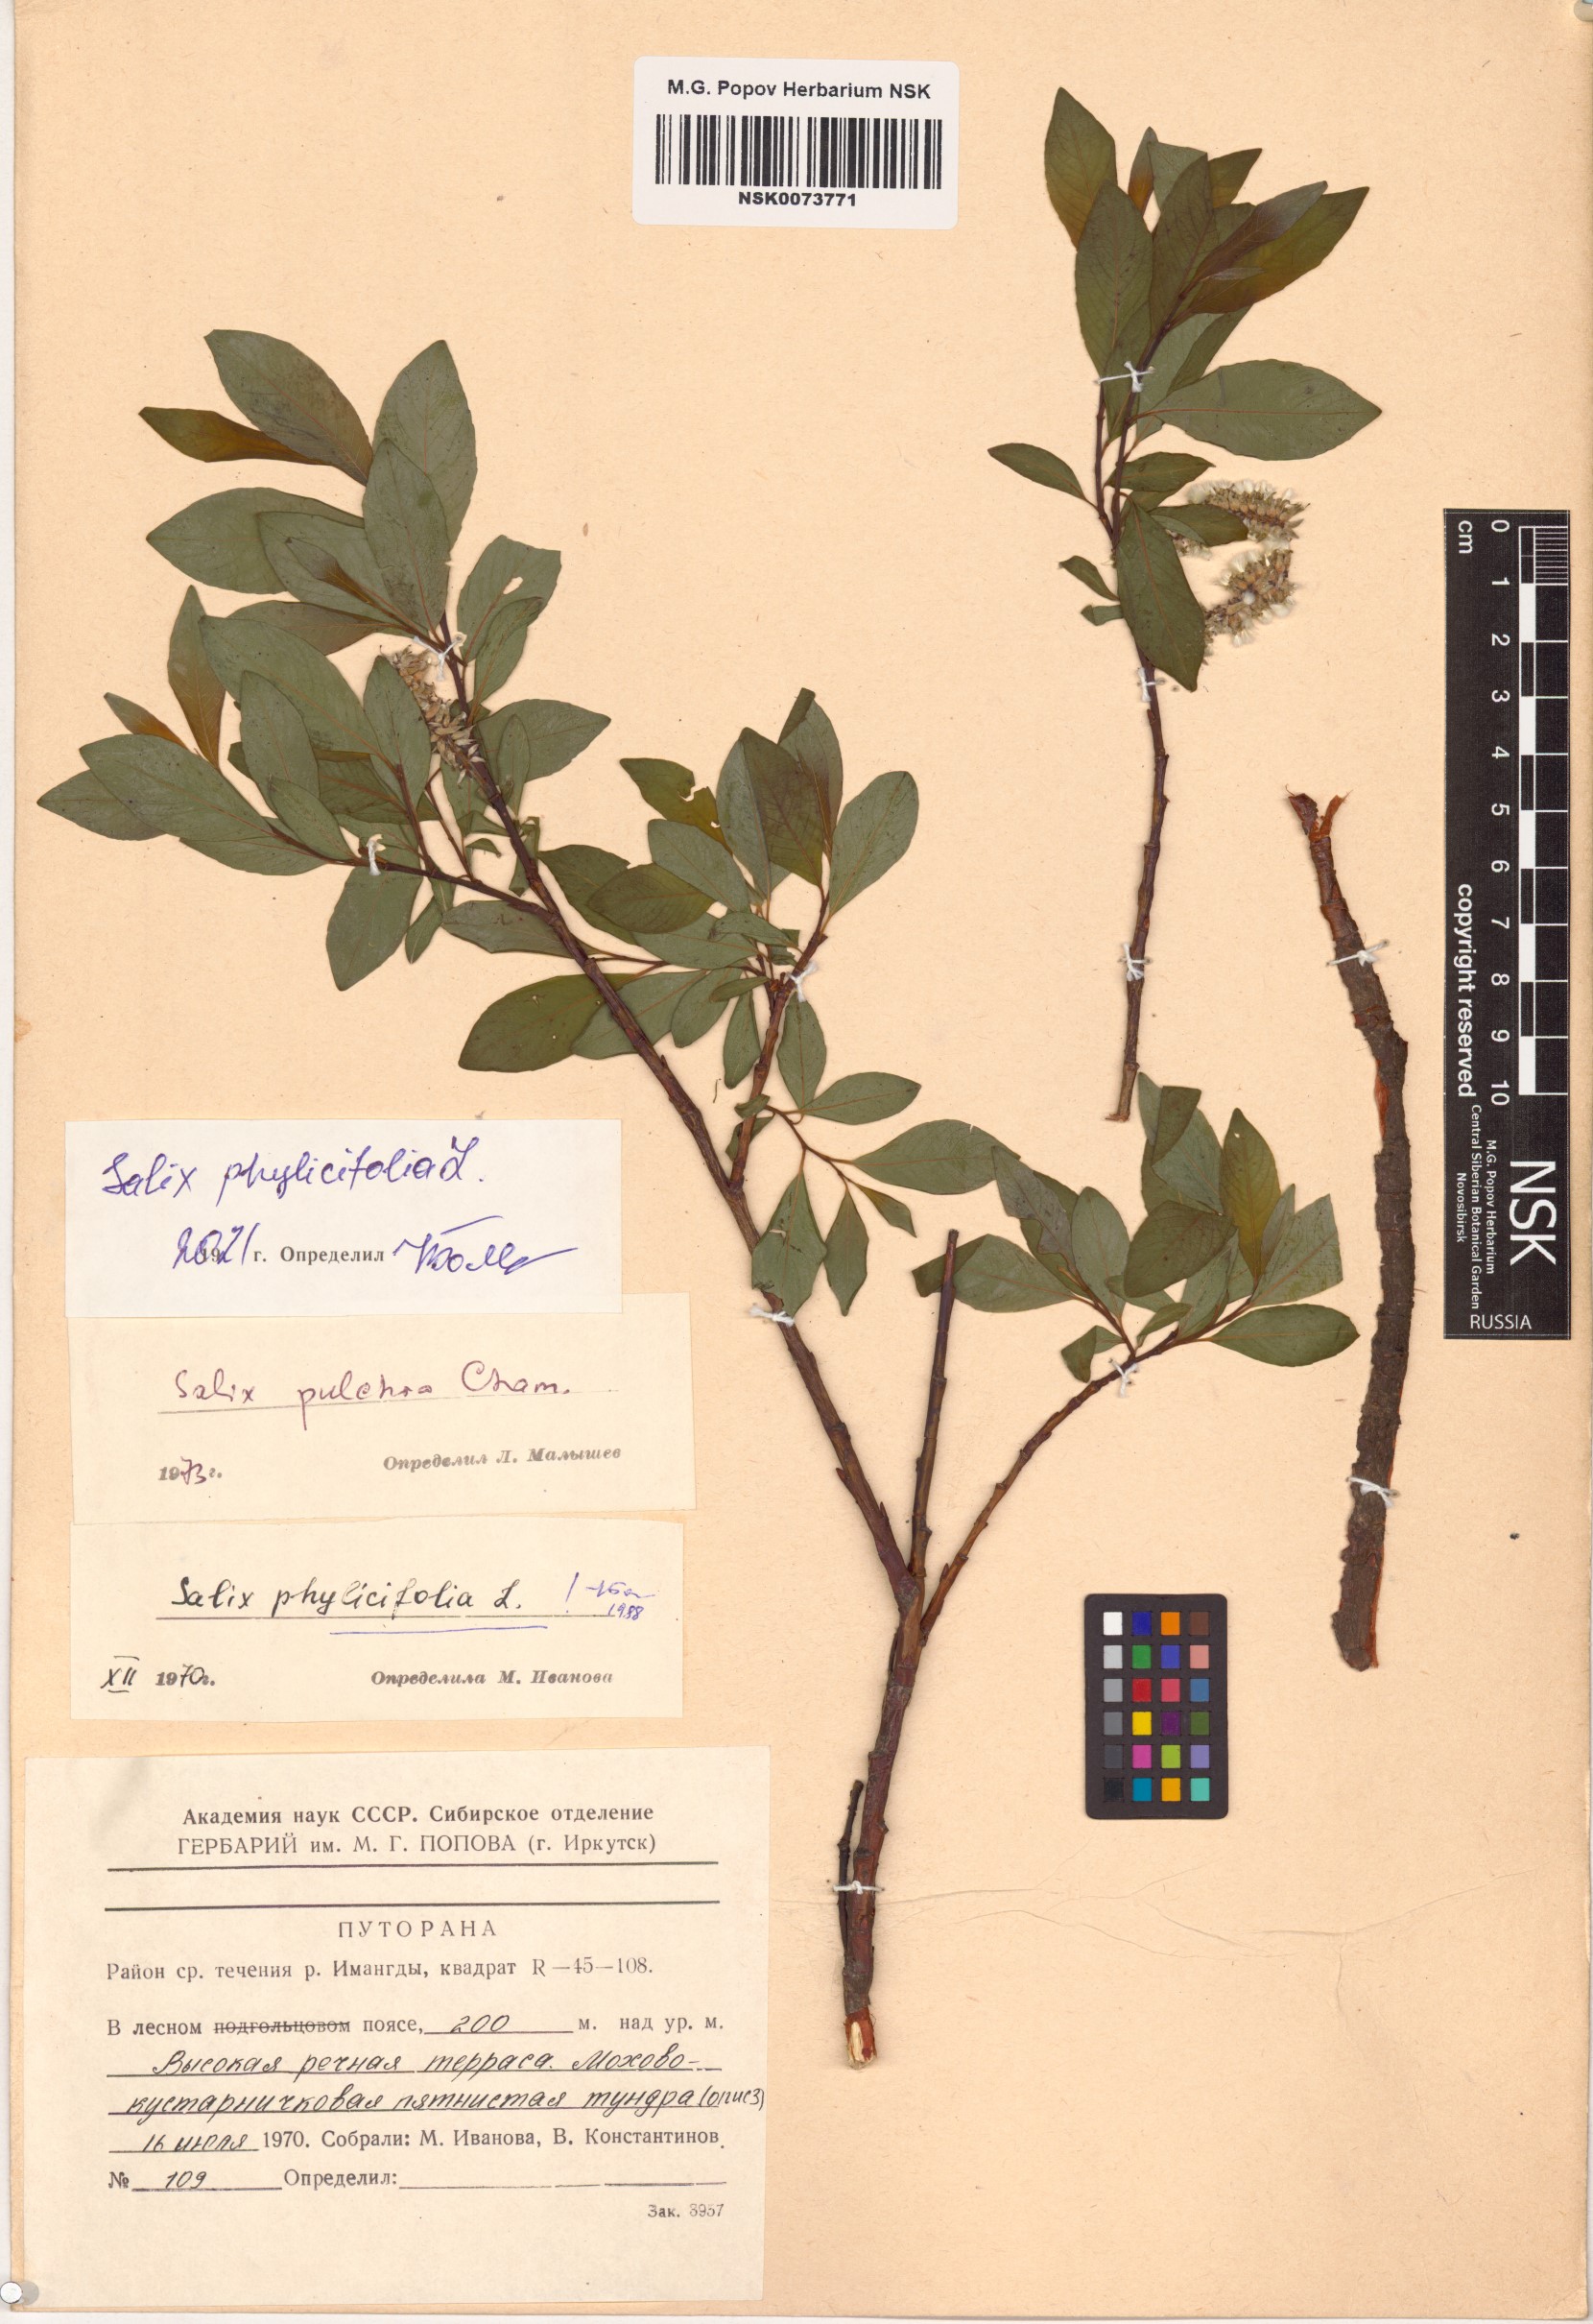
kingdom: Plantae
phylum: Tracheophyta
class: Magnoliopsida
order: Malpighiales
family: Salicaceae
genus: Salix
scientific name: Salix phylicifolia
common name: Tea-leaved willow
